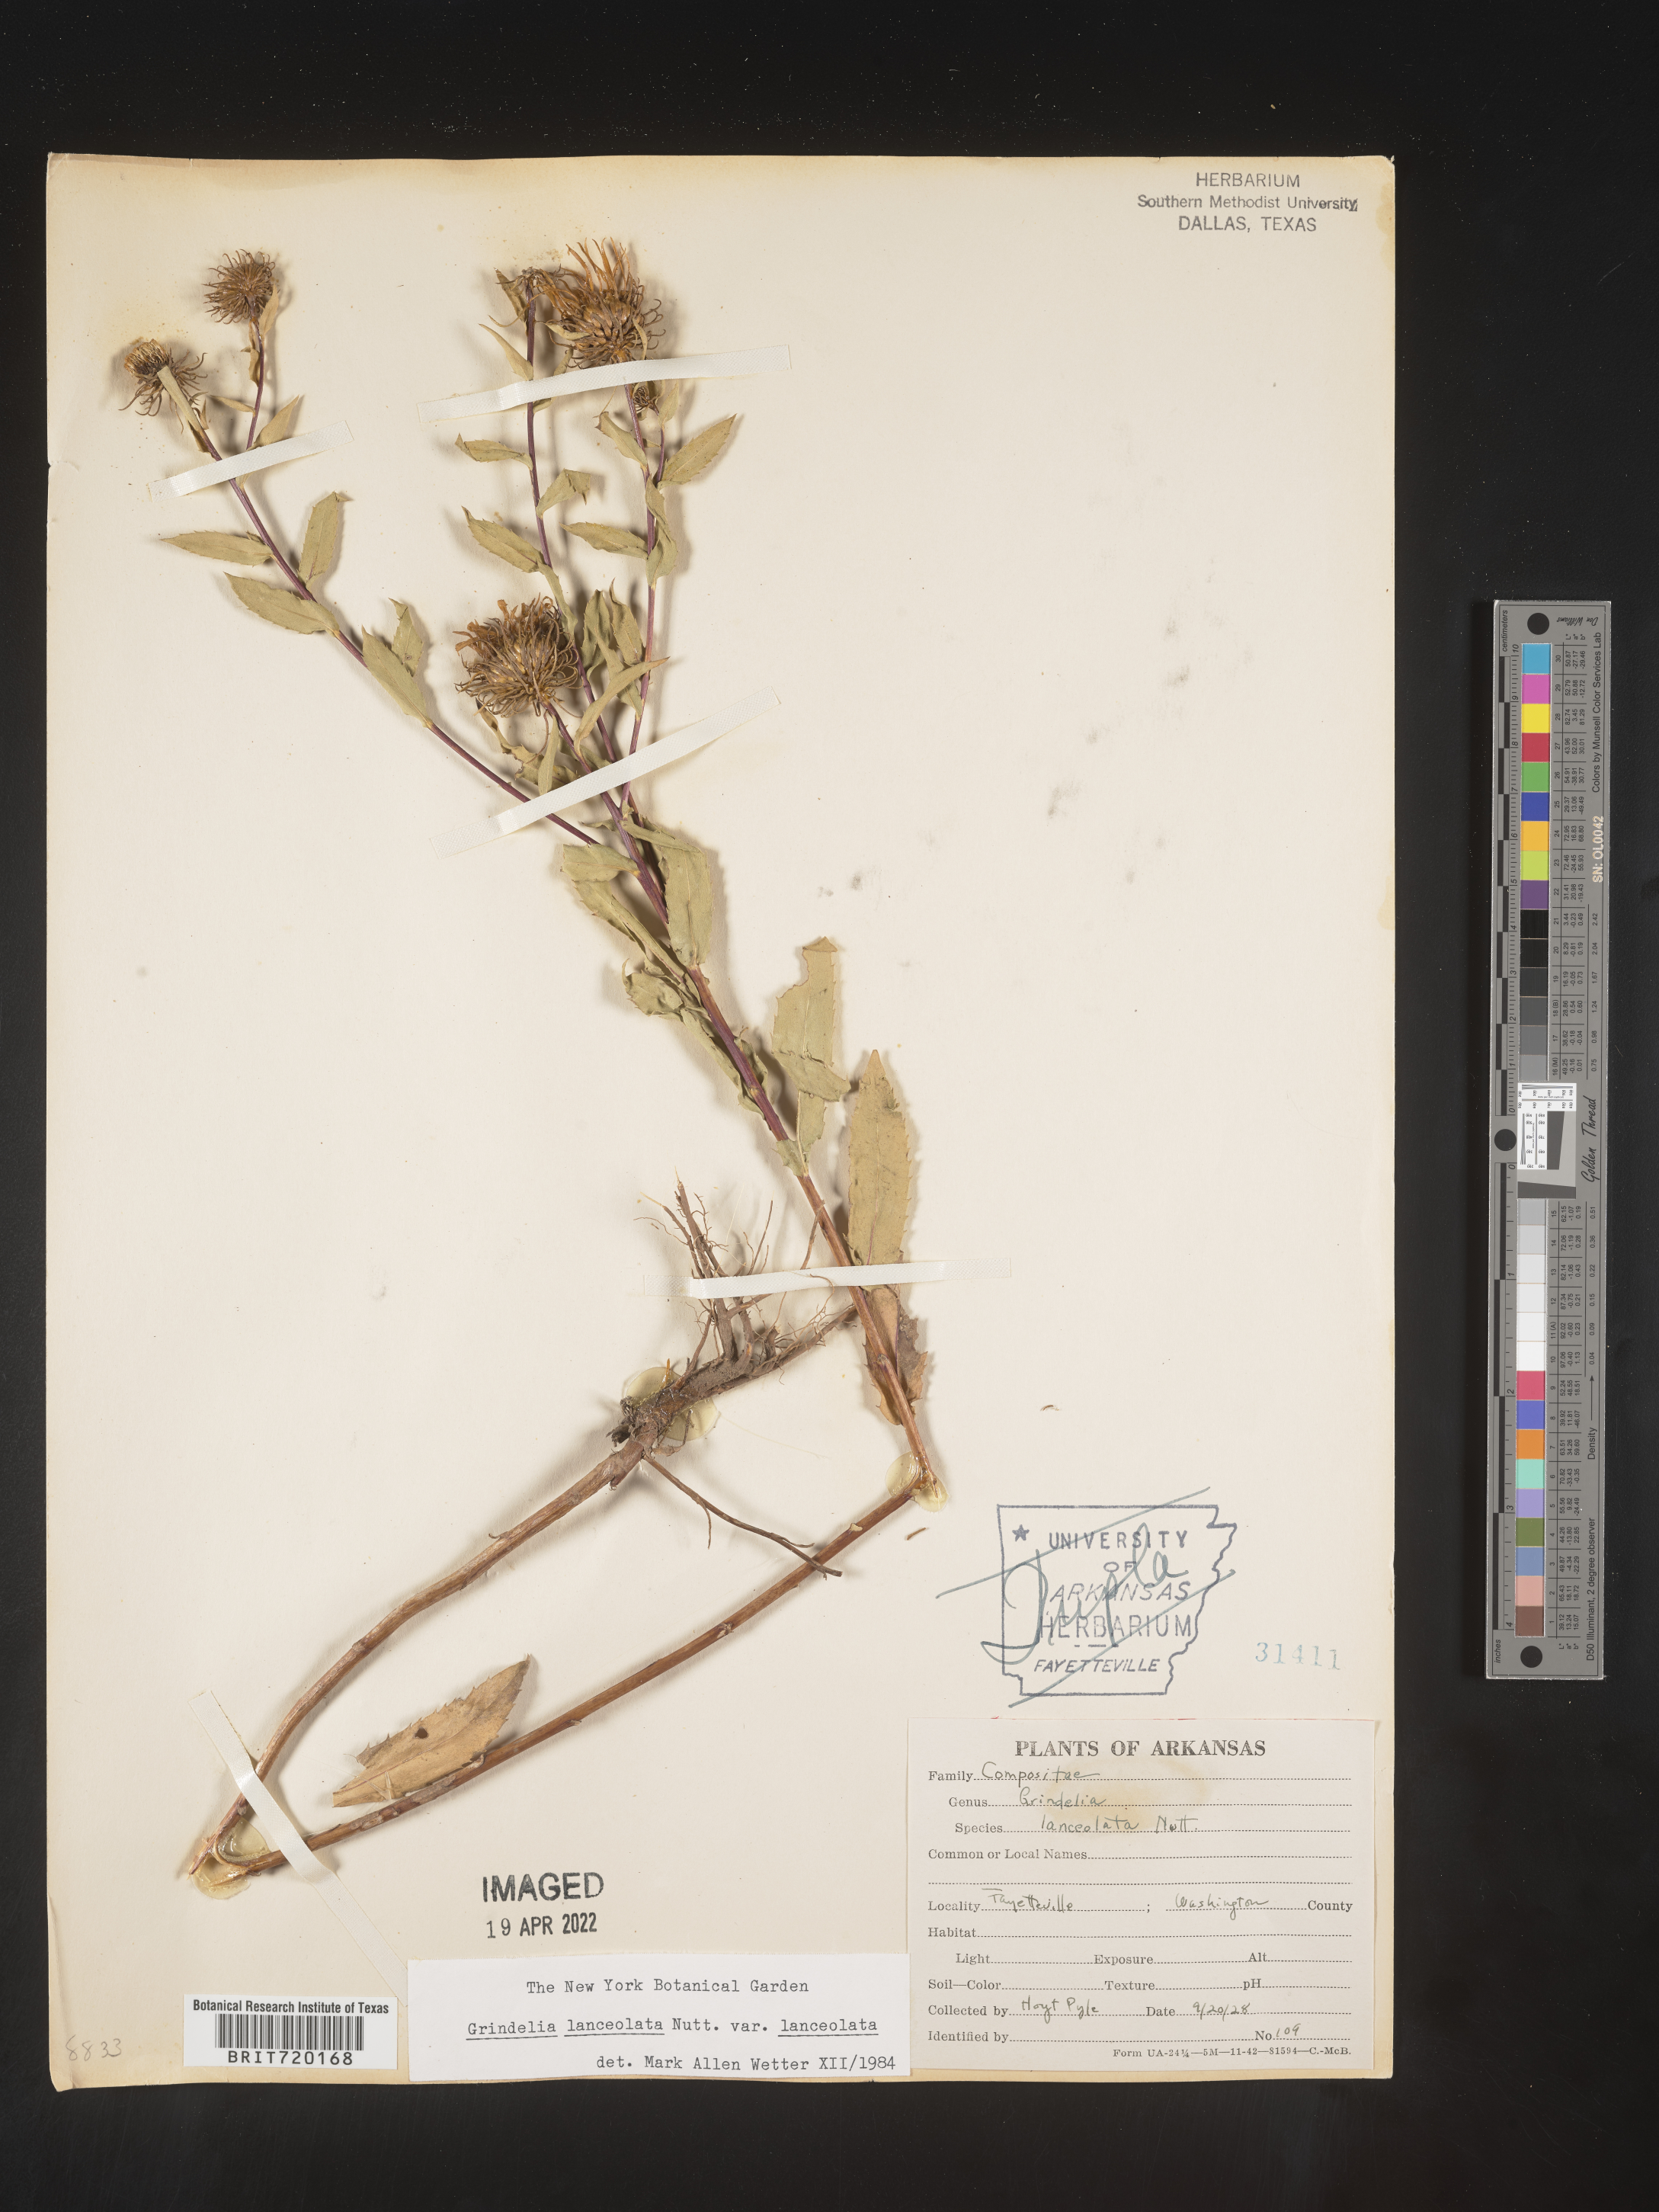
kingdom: Plantae
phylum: Tracheophyta
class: Magnoliopsida
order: Asterales
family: Asteraceae
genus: Grindelia
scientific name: Grindelia lanceolata
